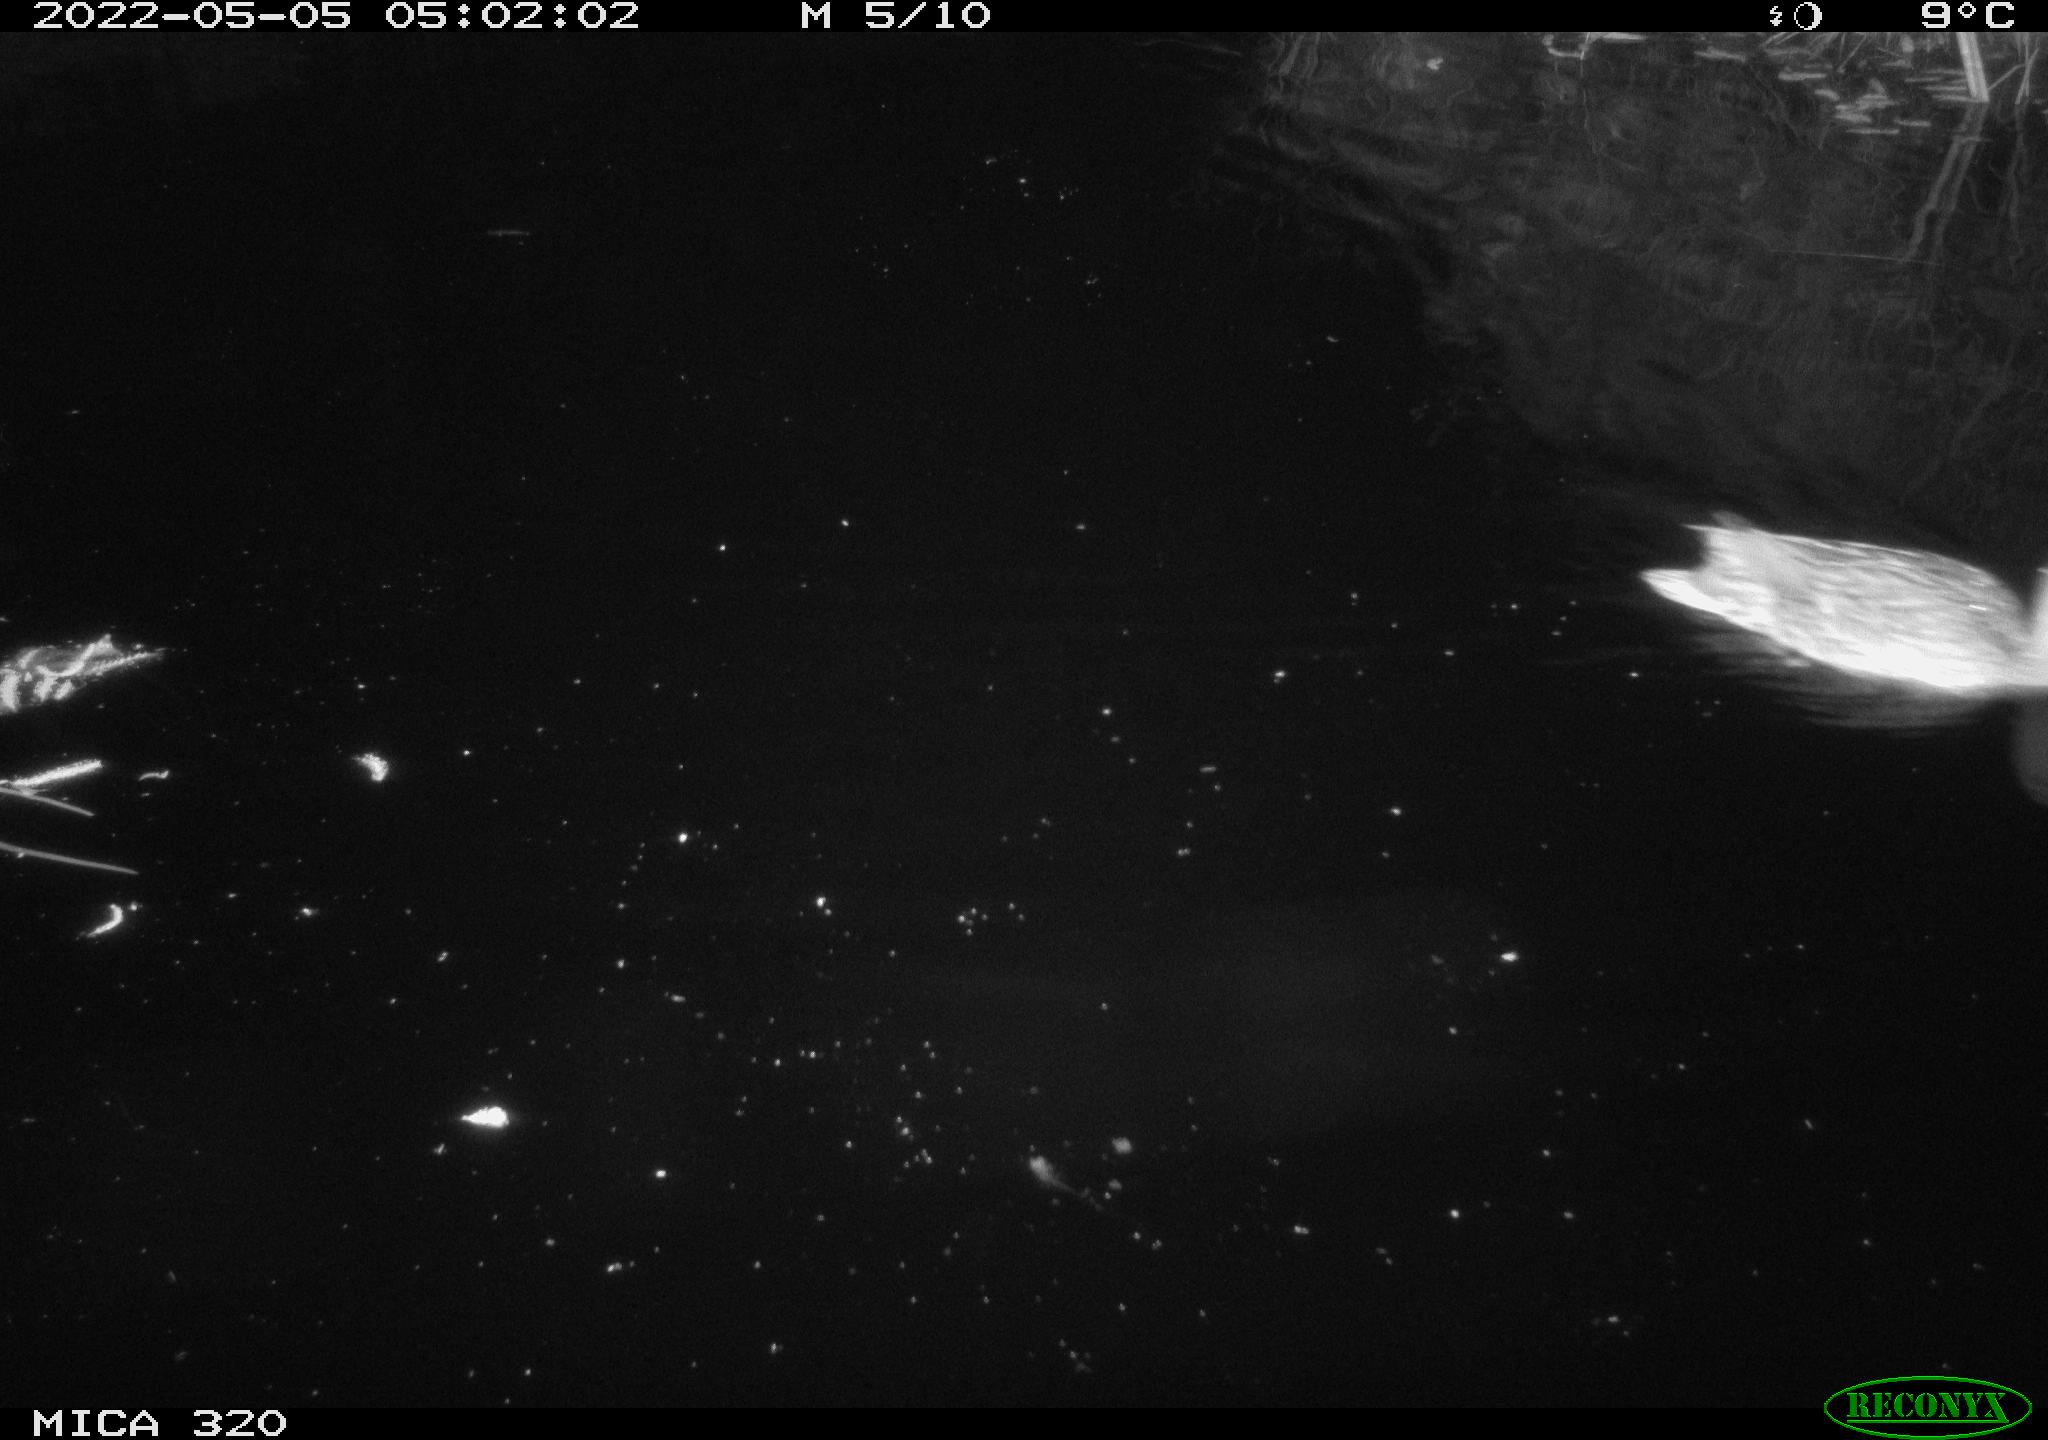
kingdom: Animalia
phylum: Chordata
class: Aves
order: Anseriformes
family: Anatidae
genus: Mareca
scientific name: Mareca strepera
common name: Gadwall
